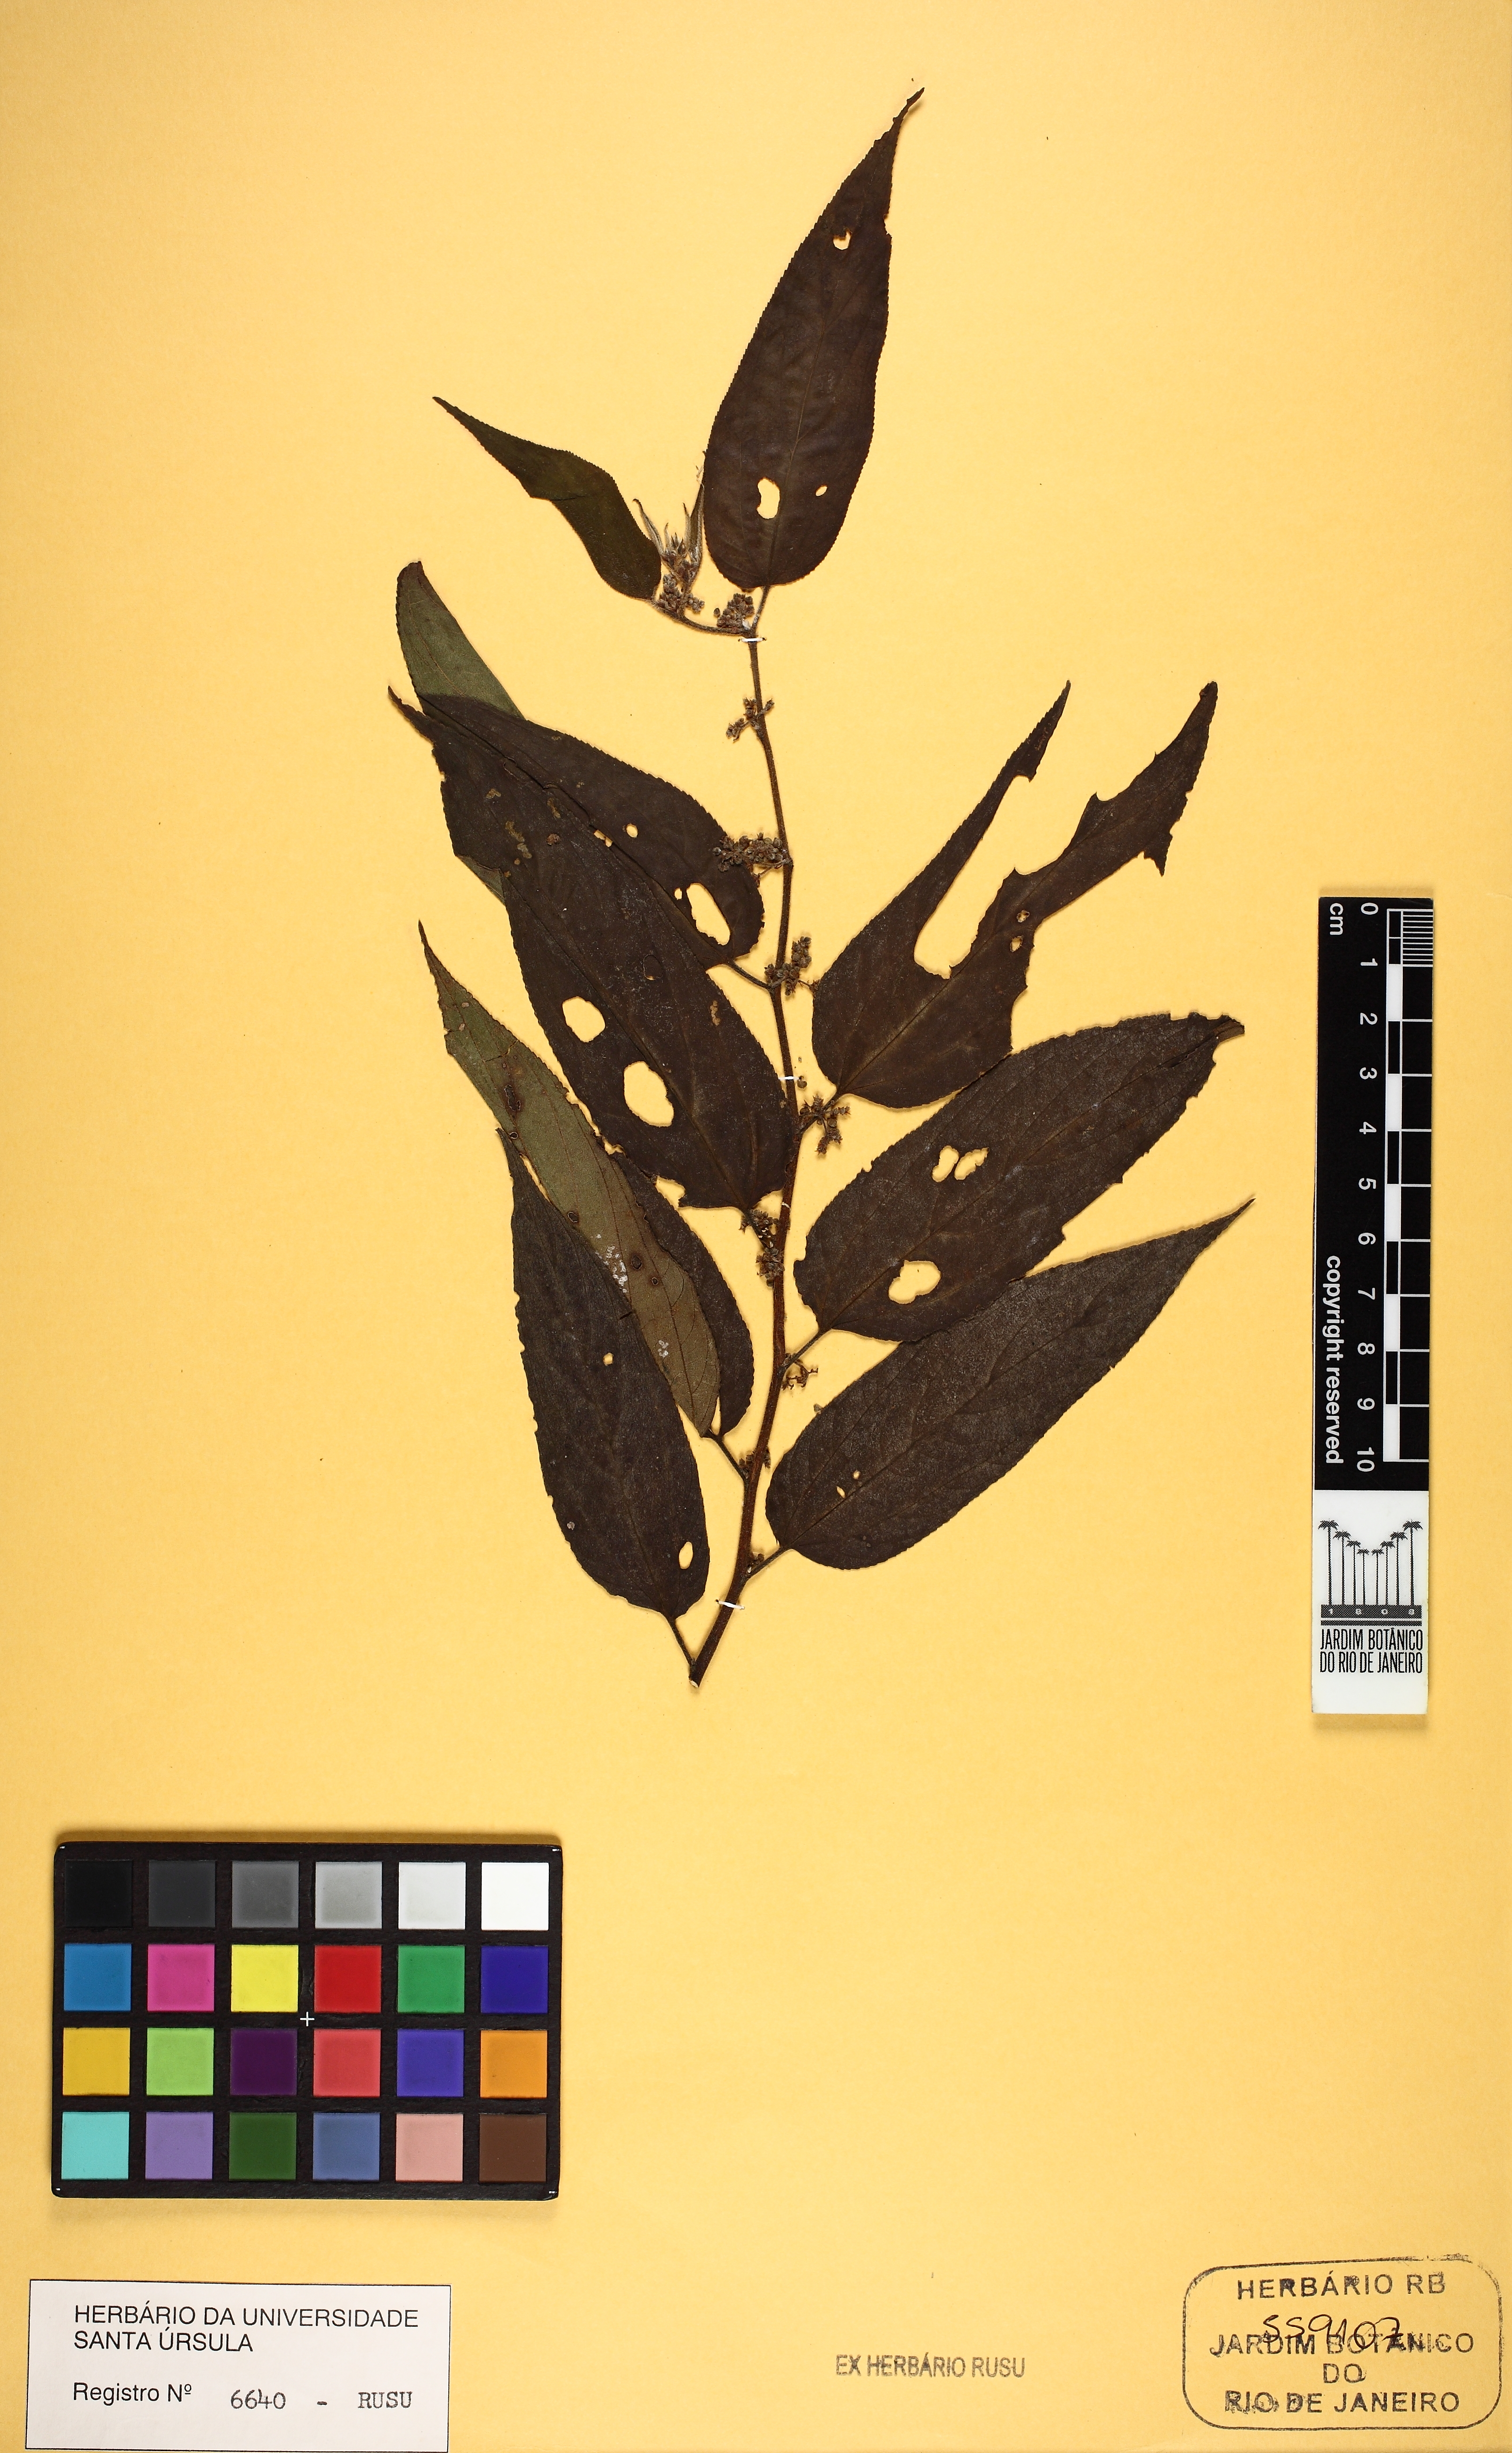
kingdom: Plantae
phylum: Tracheophyta
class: Magnoliopsida
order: Rosales
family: Cannabaceae
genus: Trema
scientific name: Trema micranthum
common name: Jamaican nettletree
